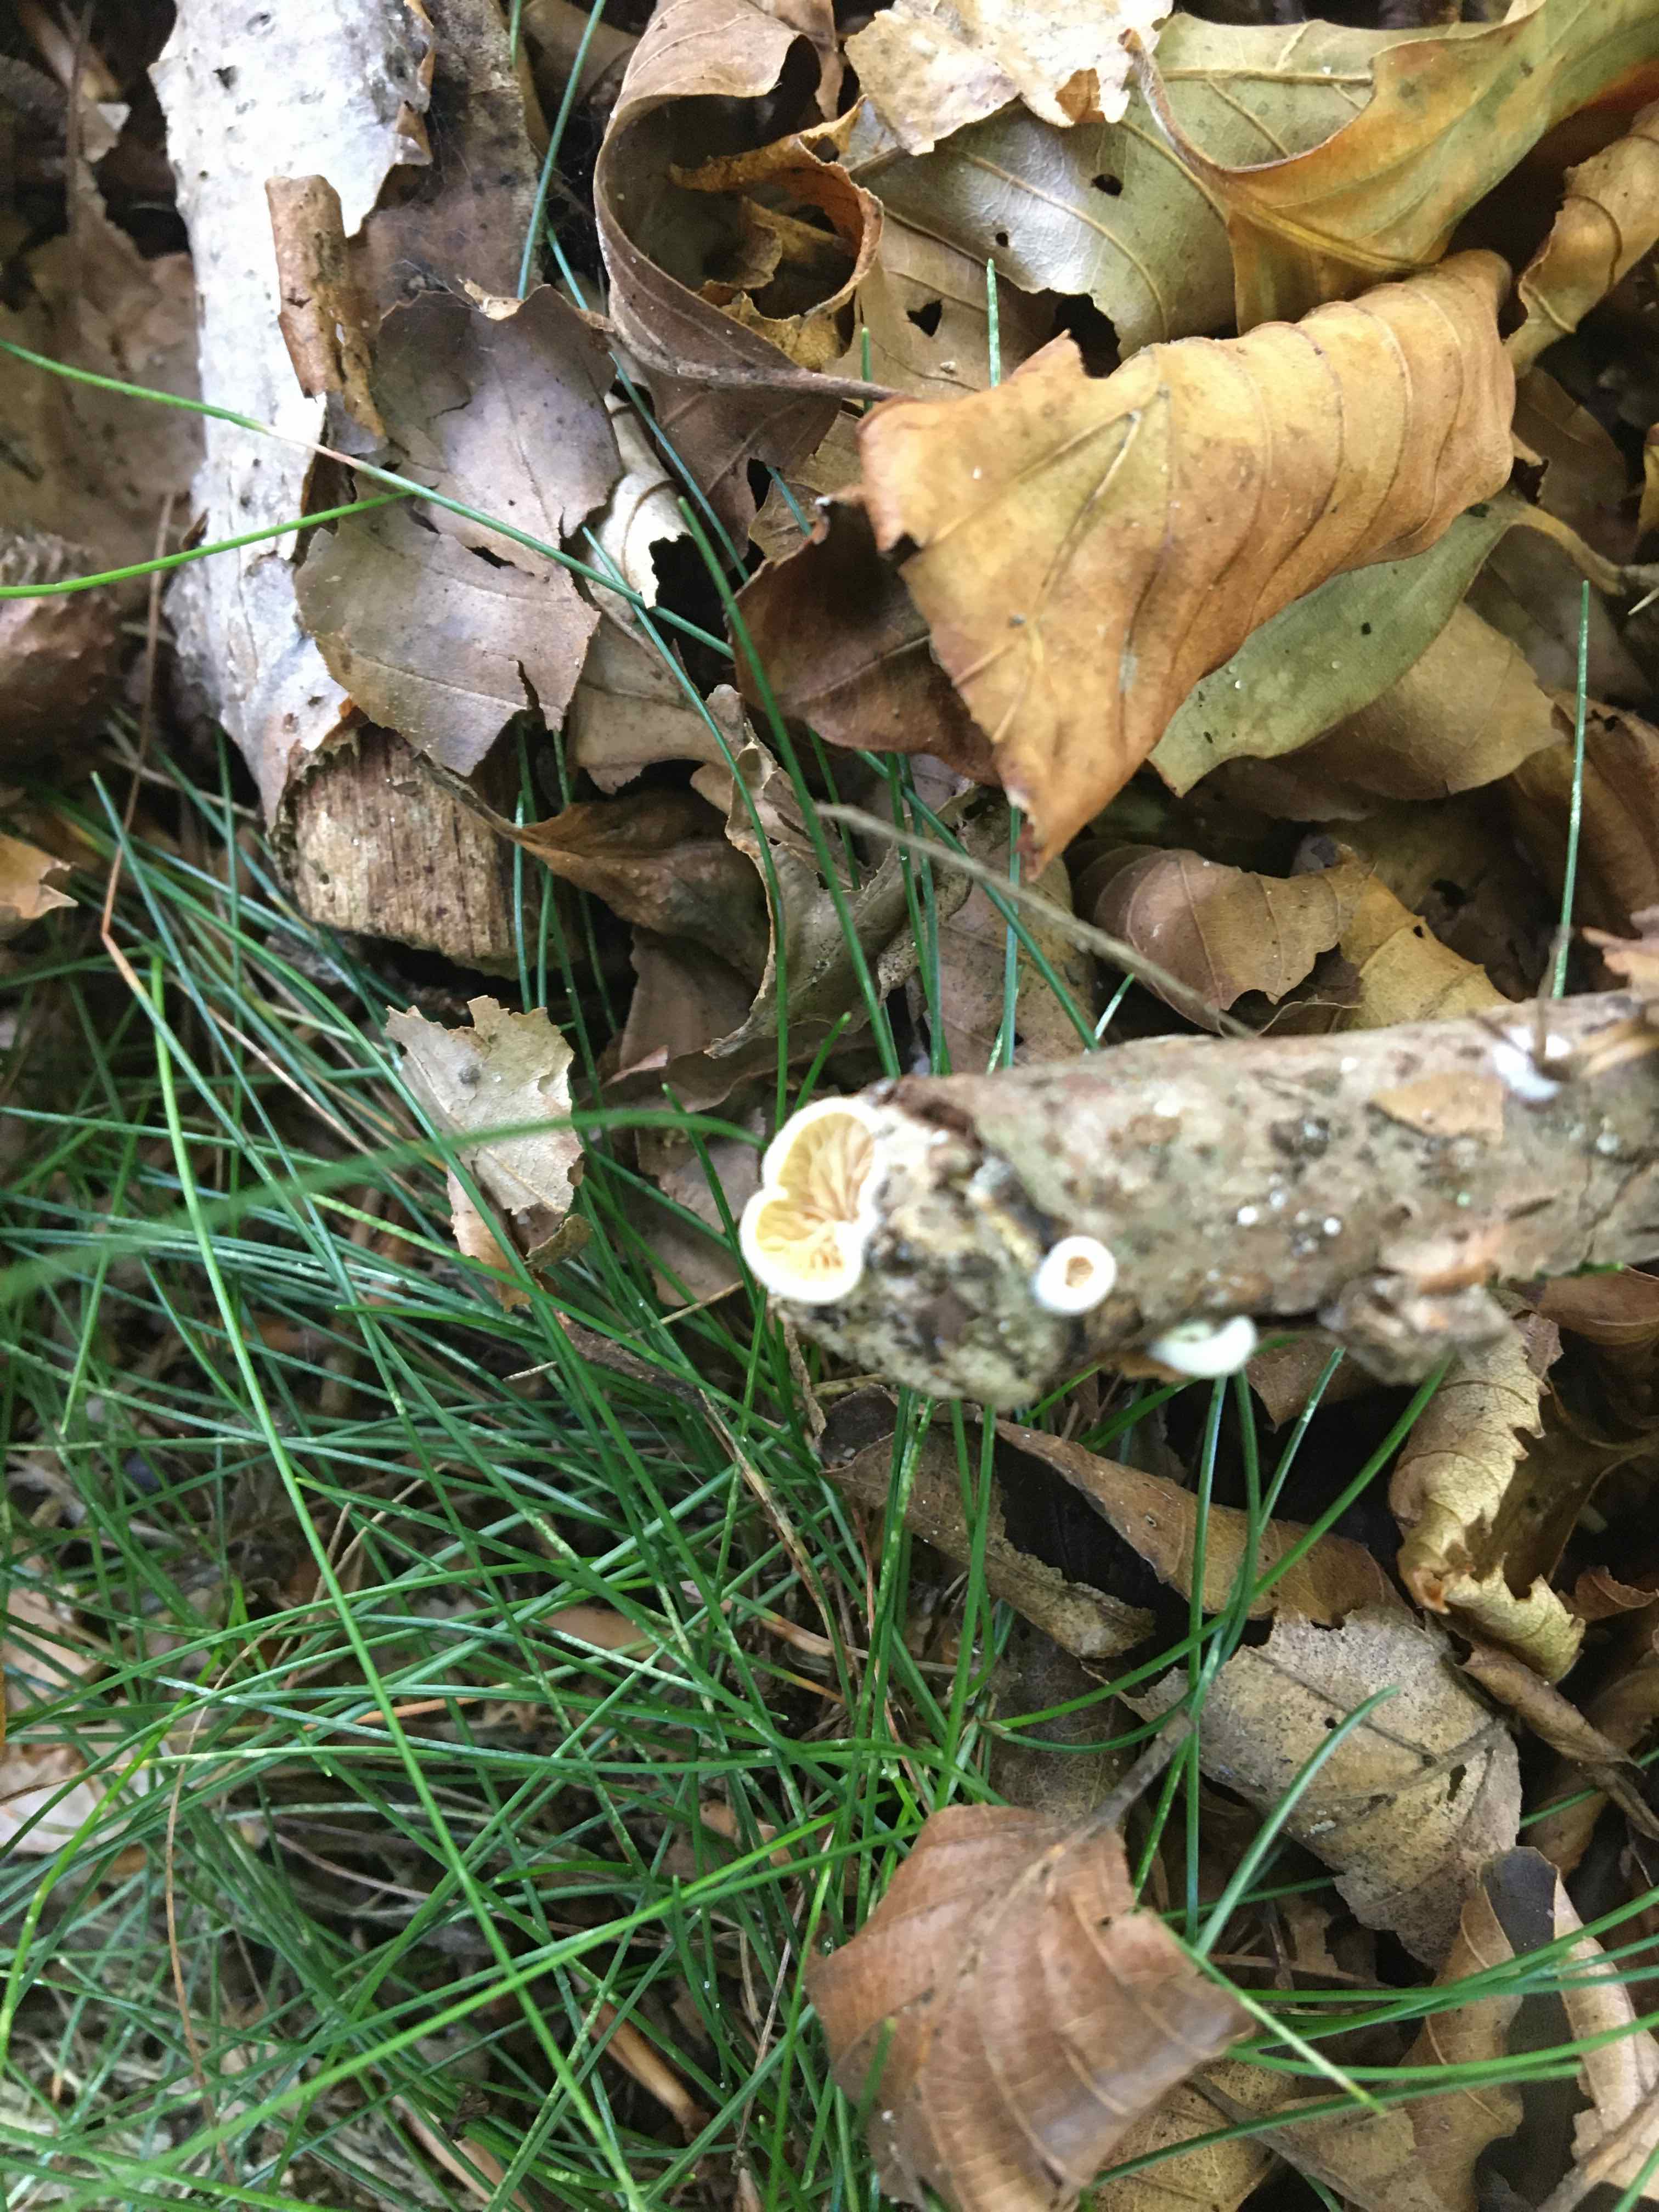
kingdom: Fungi
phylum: Basidiomycota
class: Agaricomycetes
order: Agaricales
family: Crepidotaceae
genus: Crepidotus
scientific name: Crepidotus
